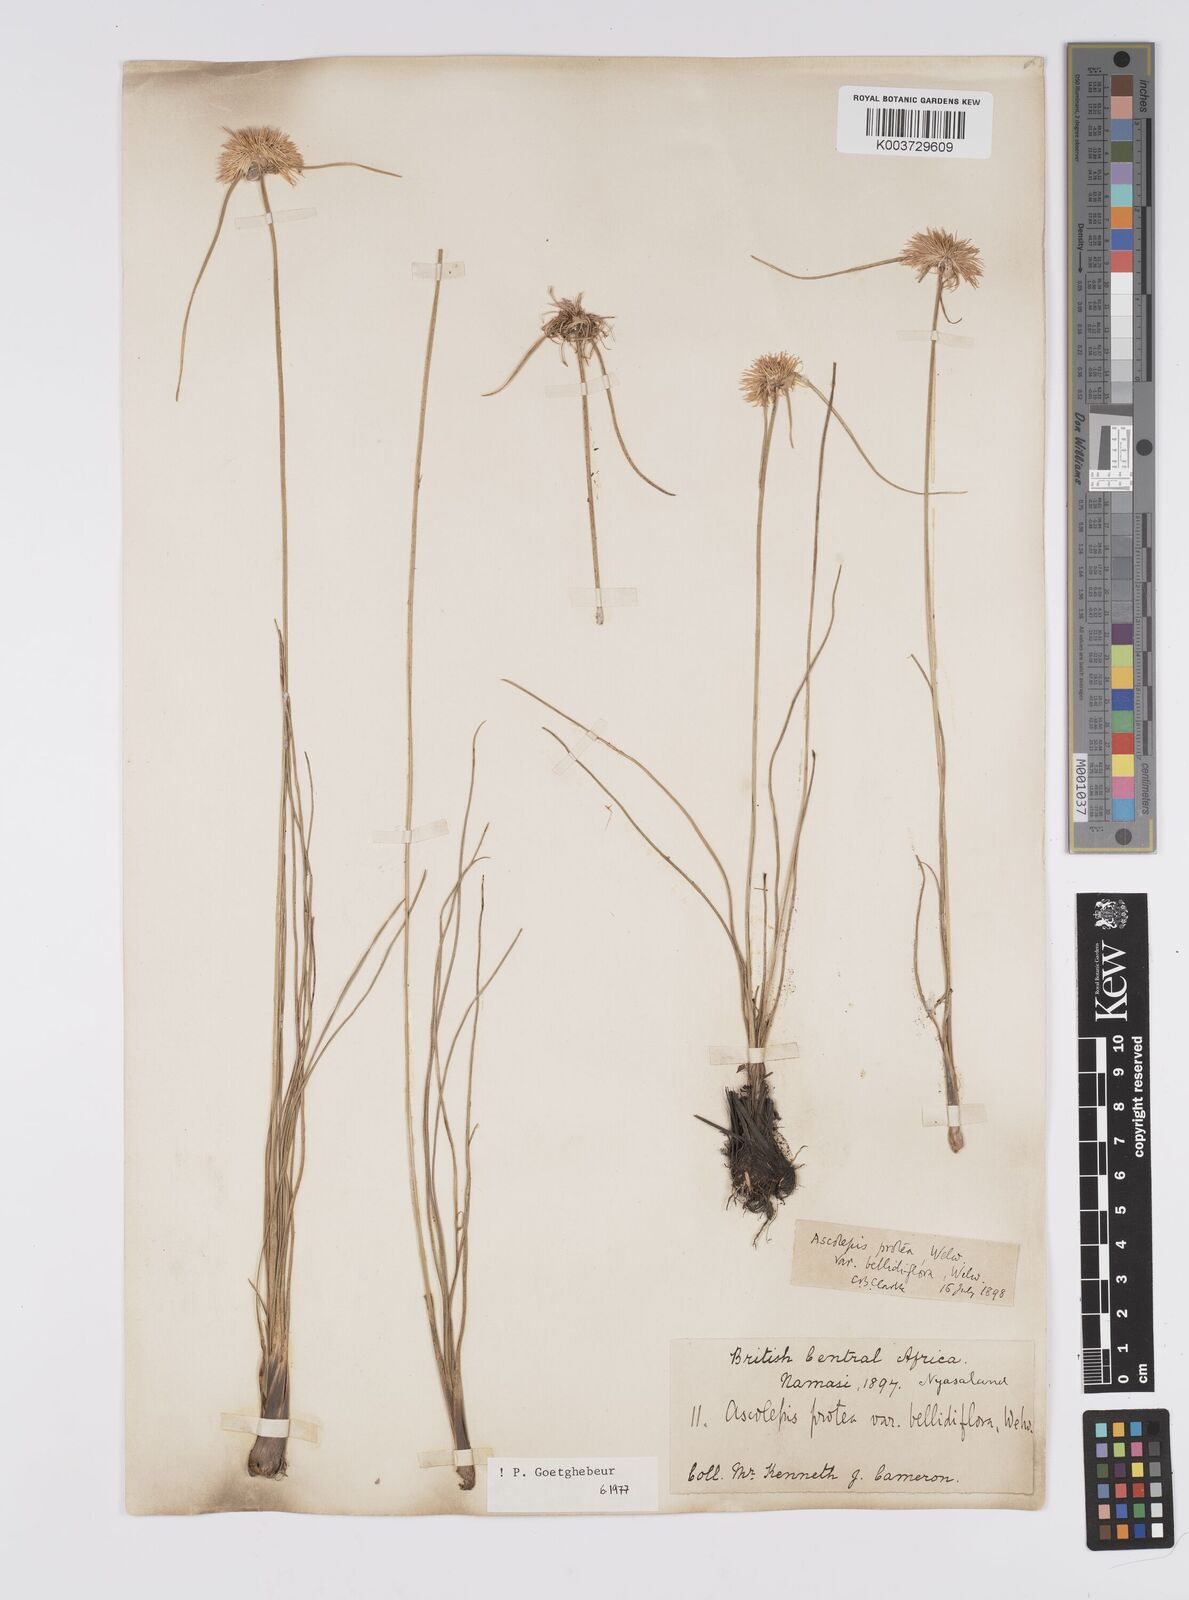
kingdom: Plantae
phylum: Tracheophyta
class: Liliopsida
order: Poales
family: Cyperaceae
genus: Cyperus
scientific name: Cyperus
